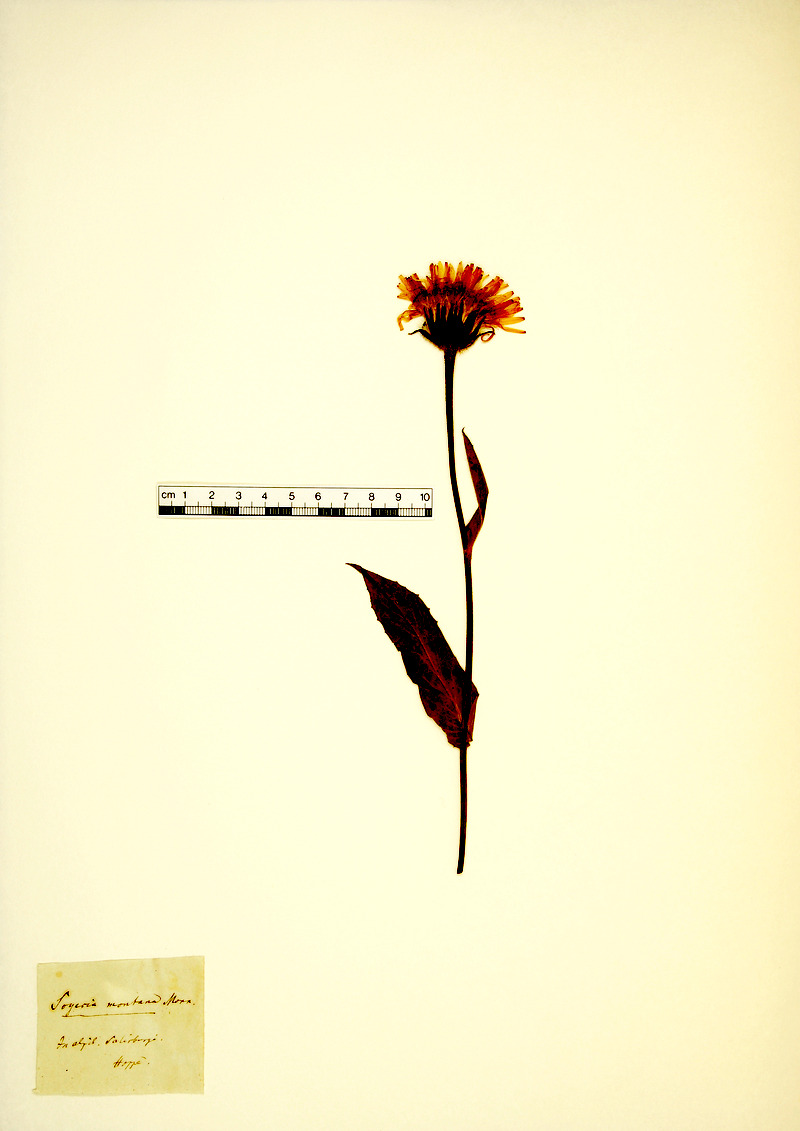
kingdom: Plantae
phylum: Tracheophyta
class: Magnoliopsida
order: Asterales
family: Asteraceae
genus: Crepis
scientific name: Crepis pontana
